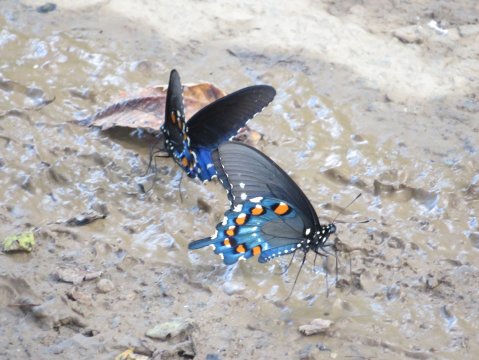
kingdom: Animalia
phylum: Arthropoda
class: Insecta
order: Lepidoptera
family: Papilionidae
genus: Battus
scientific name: Battus philenor
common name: Pipevine Swallowtail
